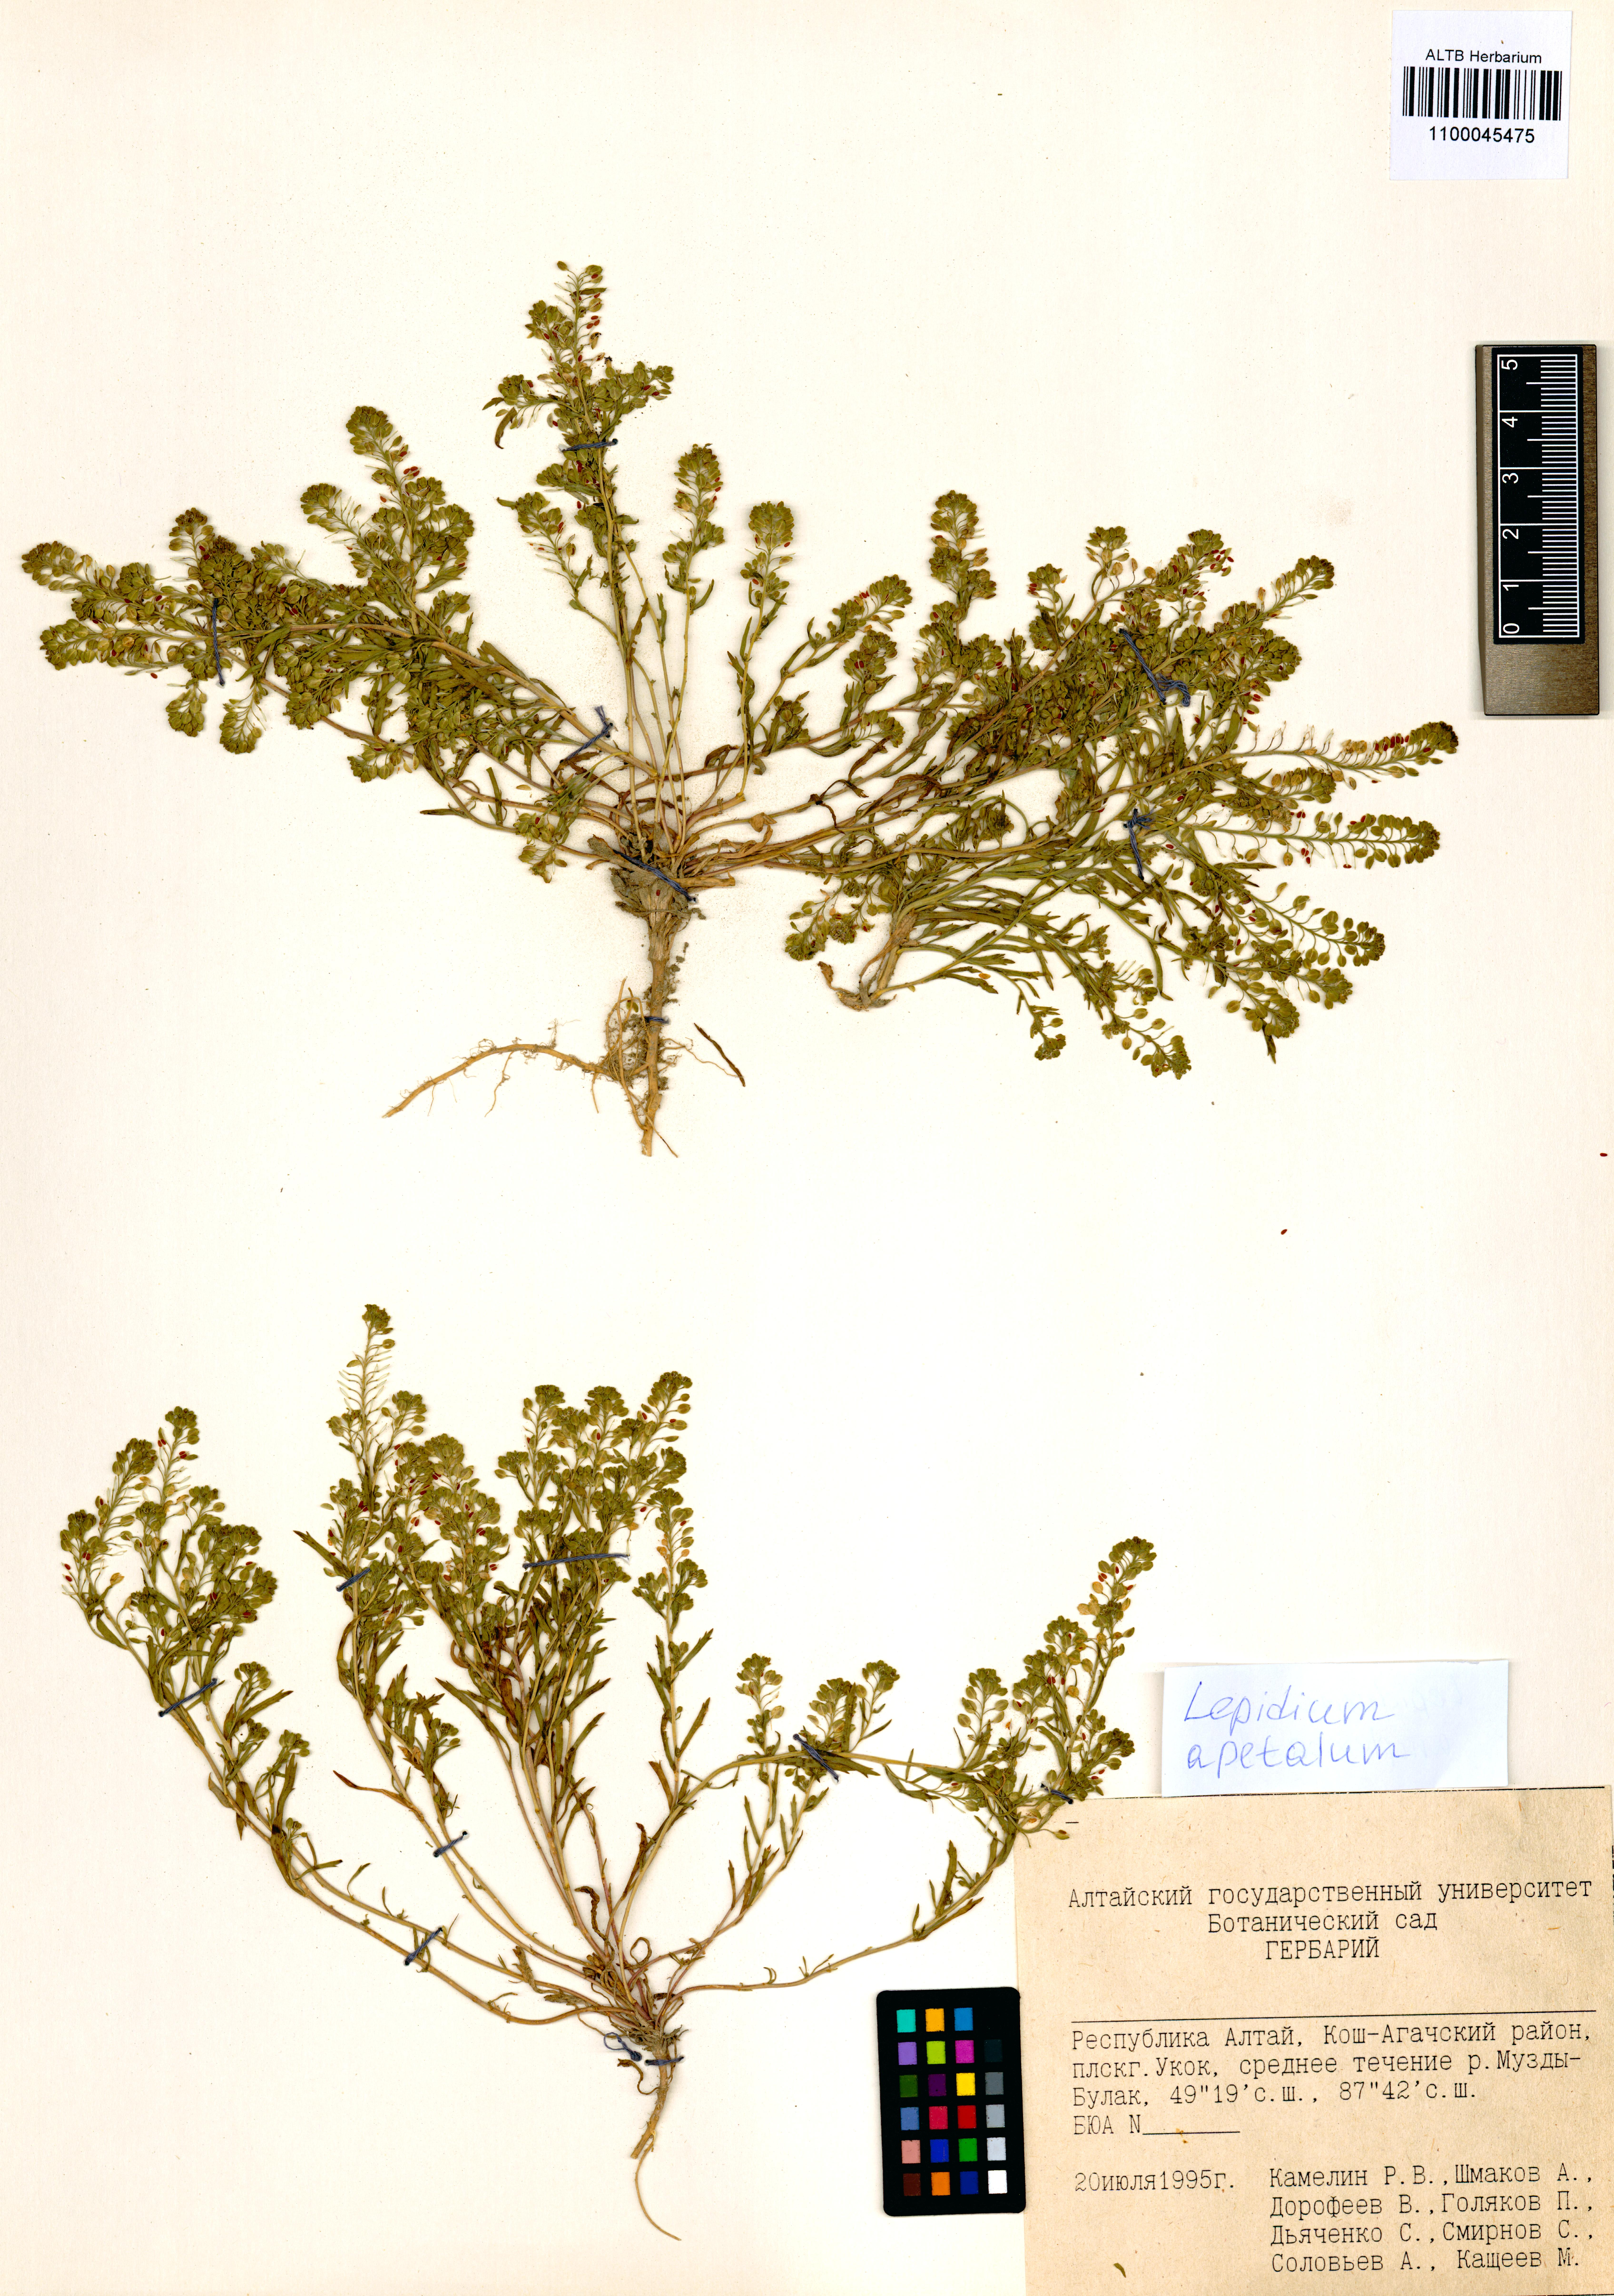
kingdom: Plantae
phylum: Tracheophyta
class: Magnoliopsida
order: Brassicales
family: Brassicaceae
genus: Lepidium
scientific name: Lepidium apetalum
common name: Pepperweed
